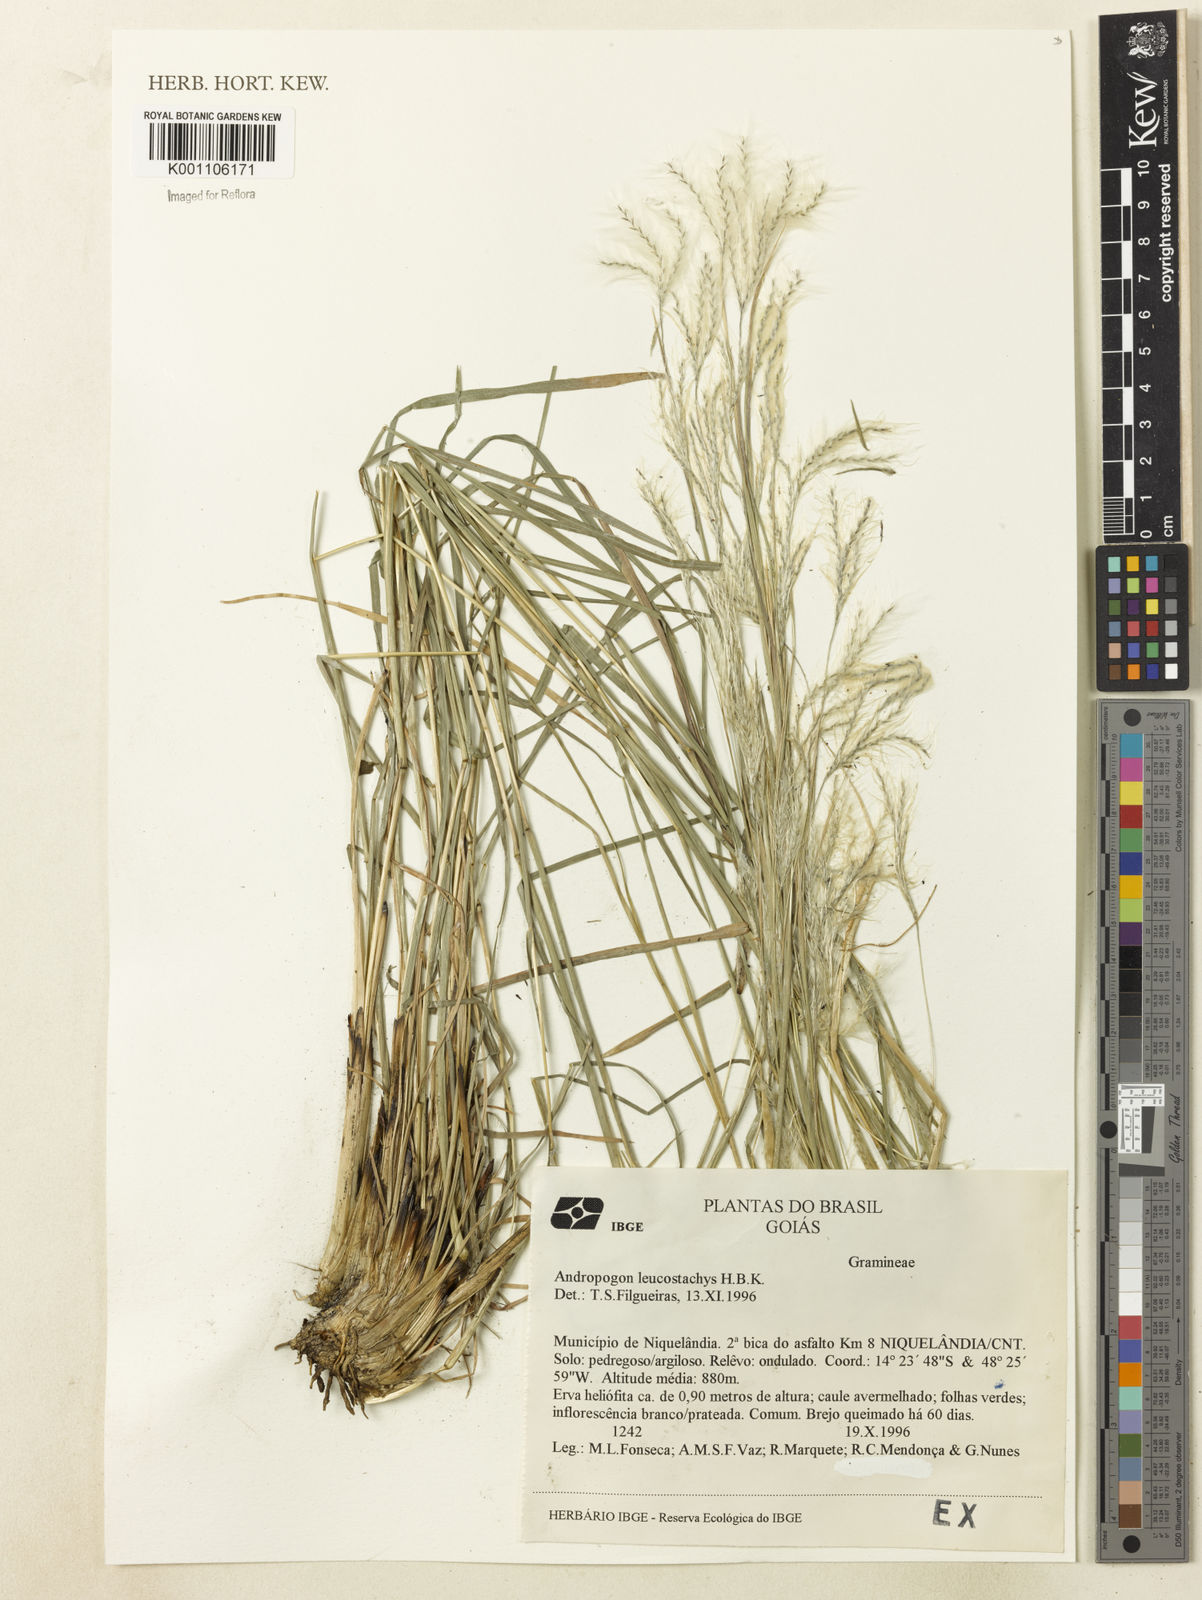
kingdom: Plantae
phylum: Tracheophyta
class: Liliopsida
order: Poales
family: Poaceae
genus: Andropogon
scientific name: Andropogon leucostachyus
